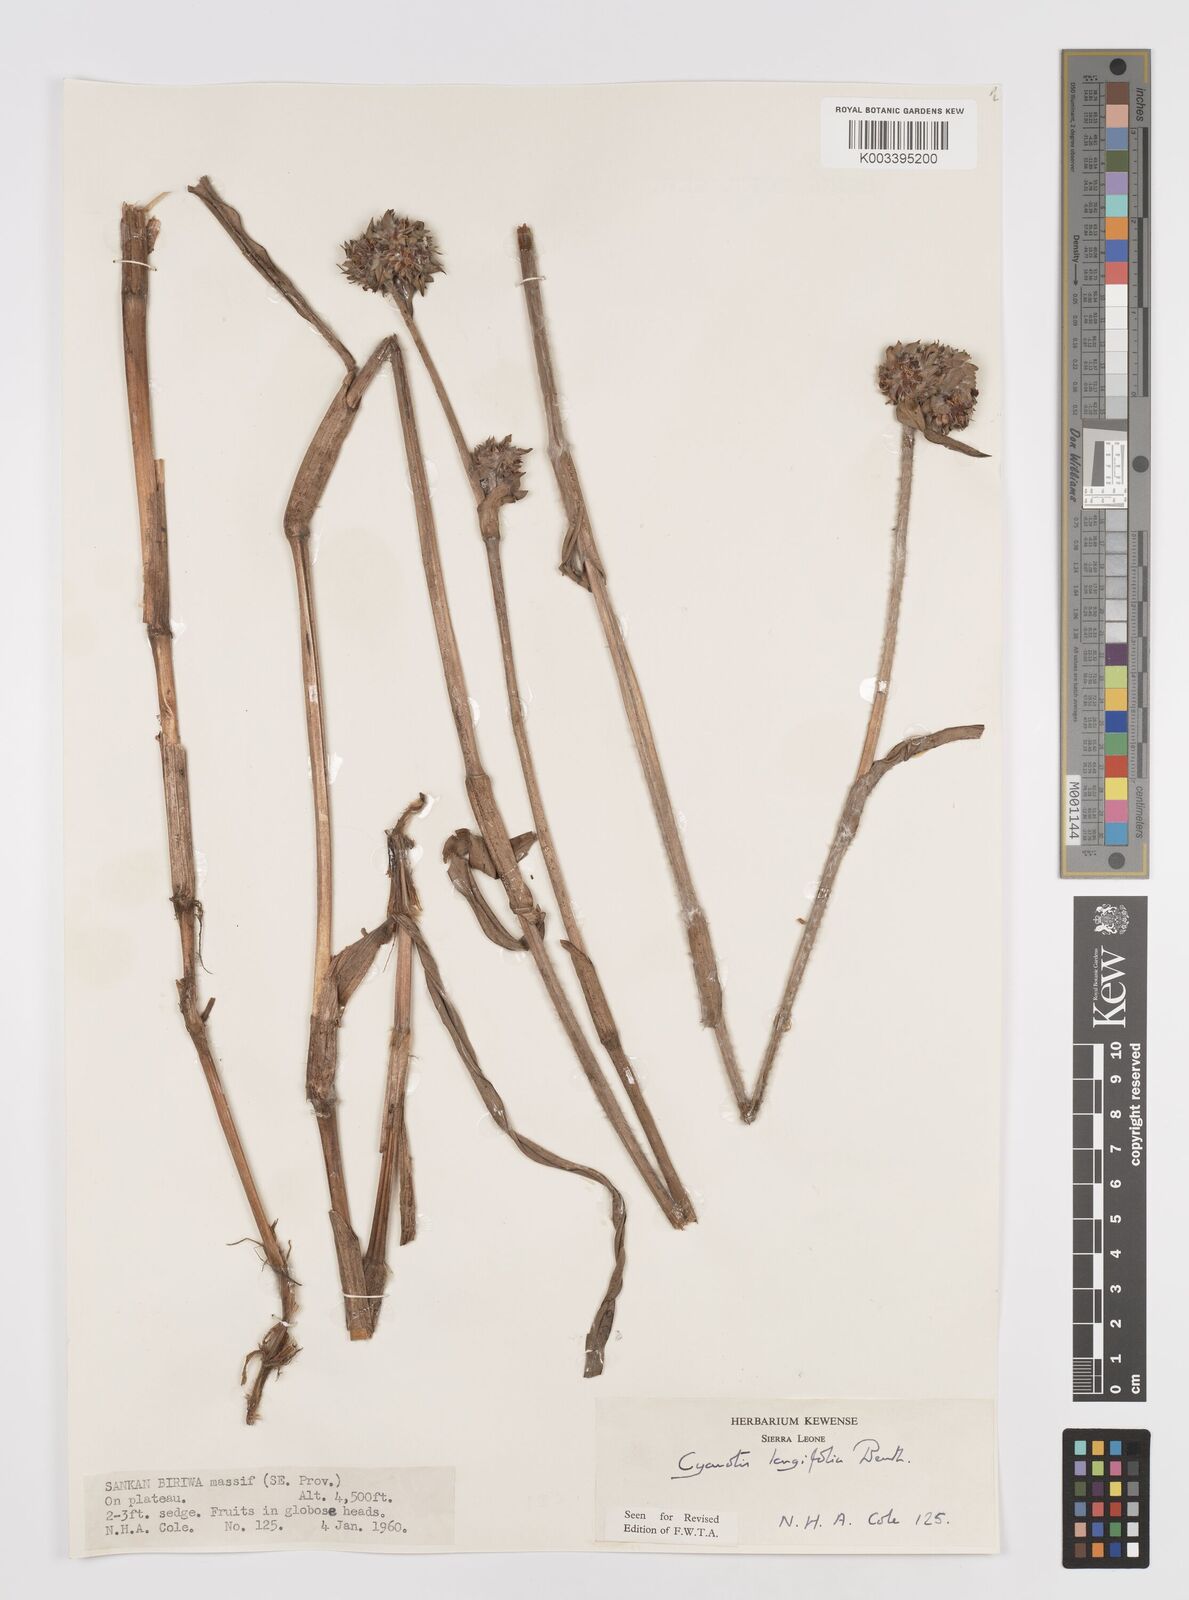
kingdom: Plantae
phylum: Tracheophyta
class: Liliopsida
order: Commelinales
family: Commelinaceae
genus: Cyanotis
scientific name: Cyanotis
